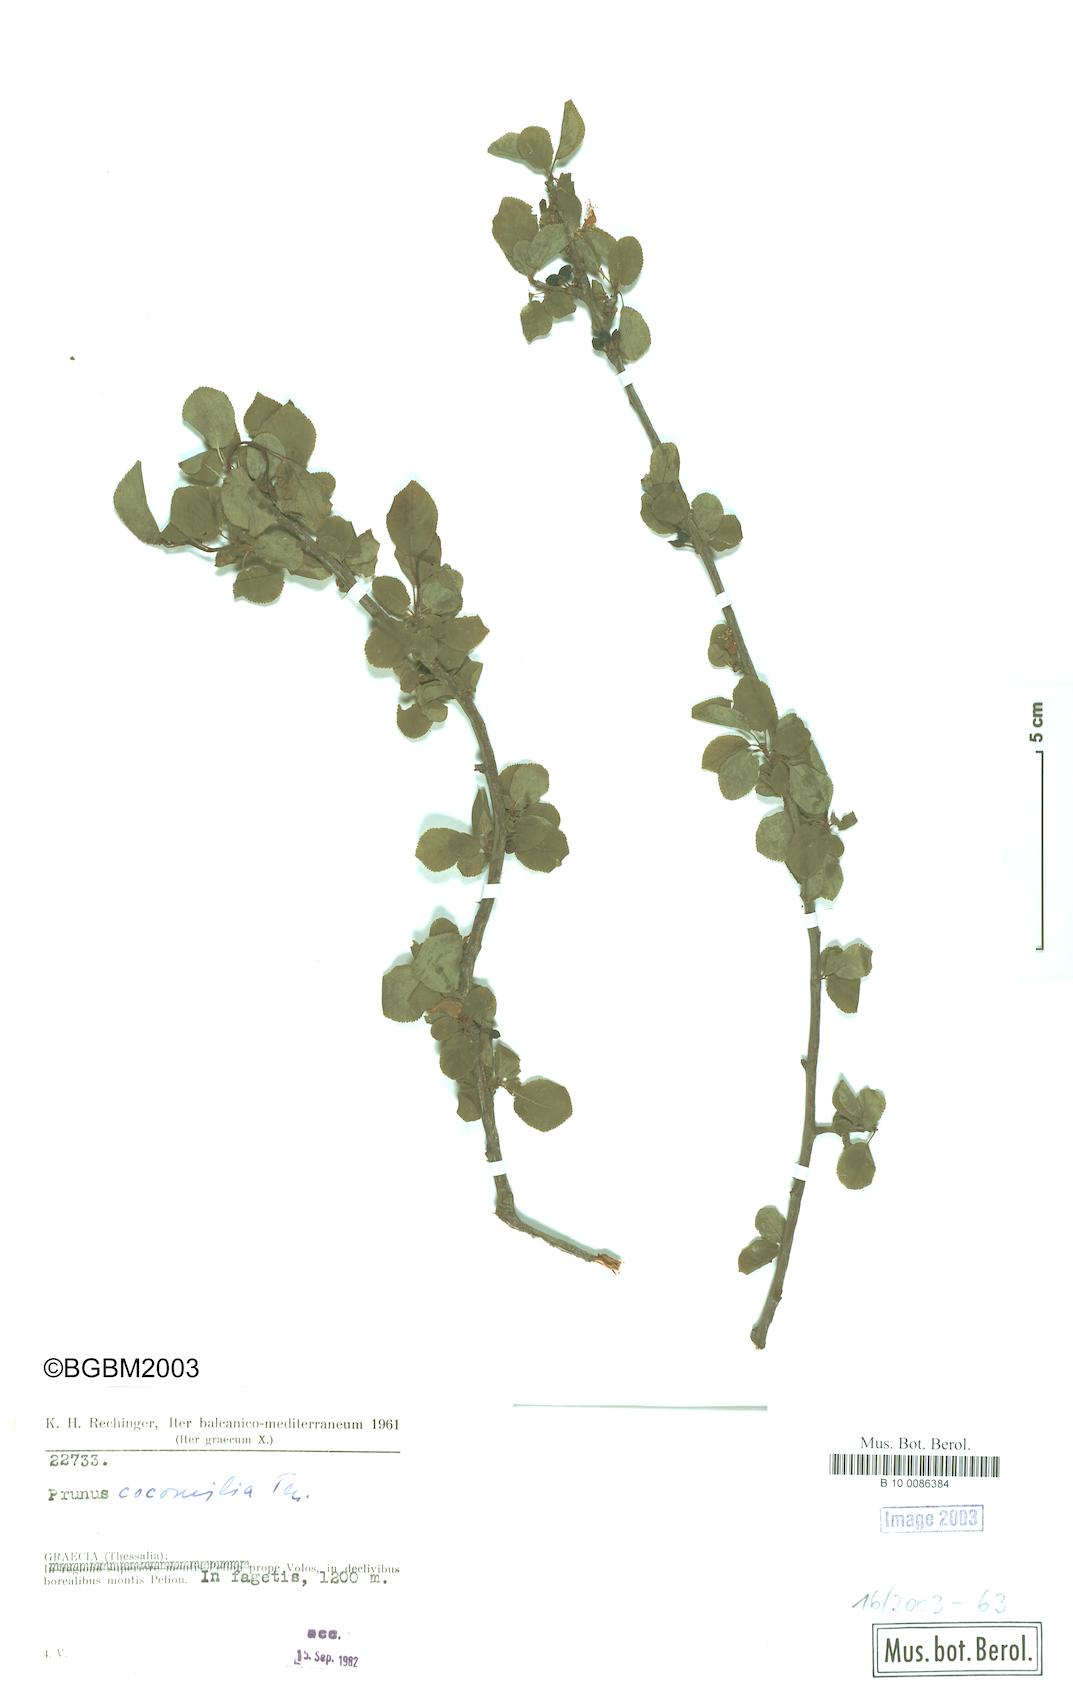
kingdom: Plantae
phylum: Tracheophyta
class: Magnoliopsida
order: Rosales
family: Rosaceae
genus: Prunus
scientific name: Prunus cocomilia
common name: Italian plum
